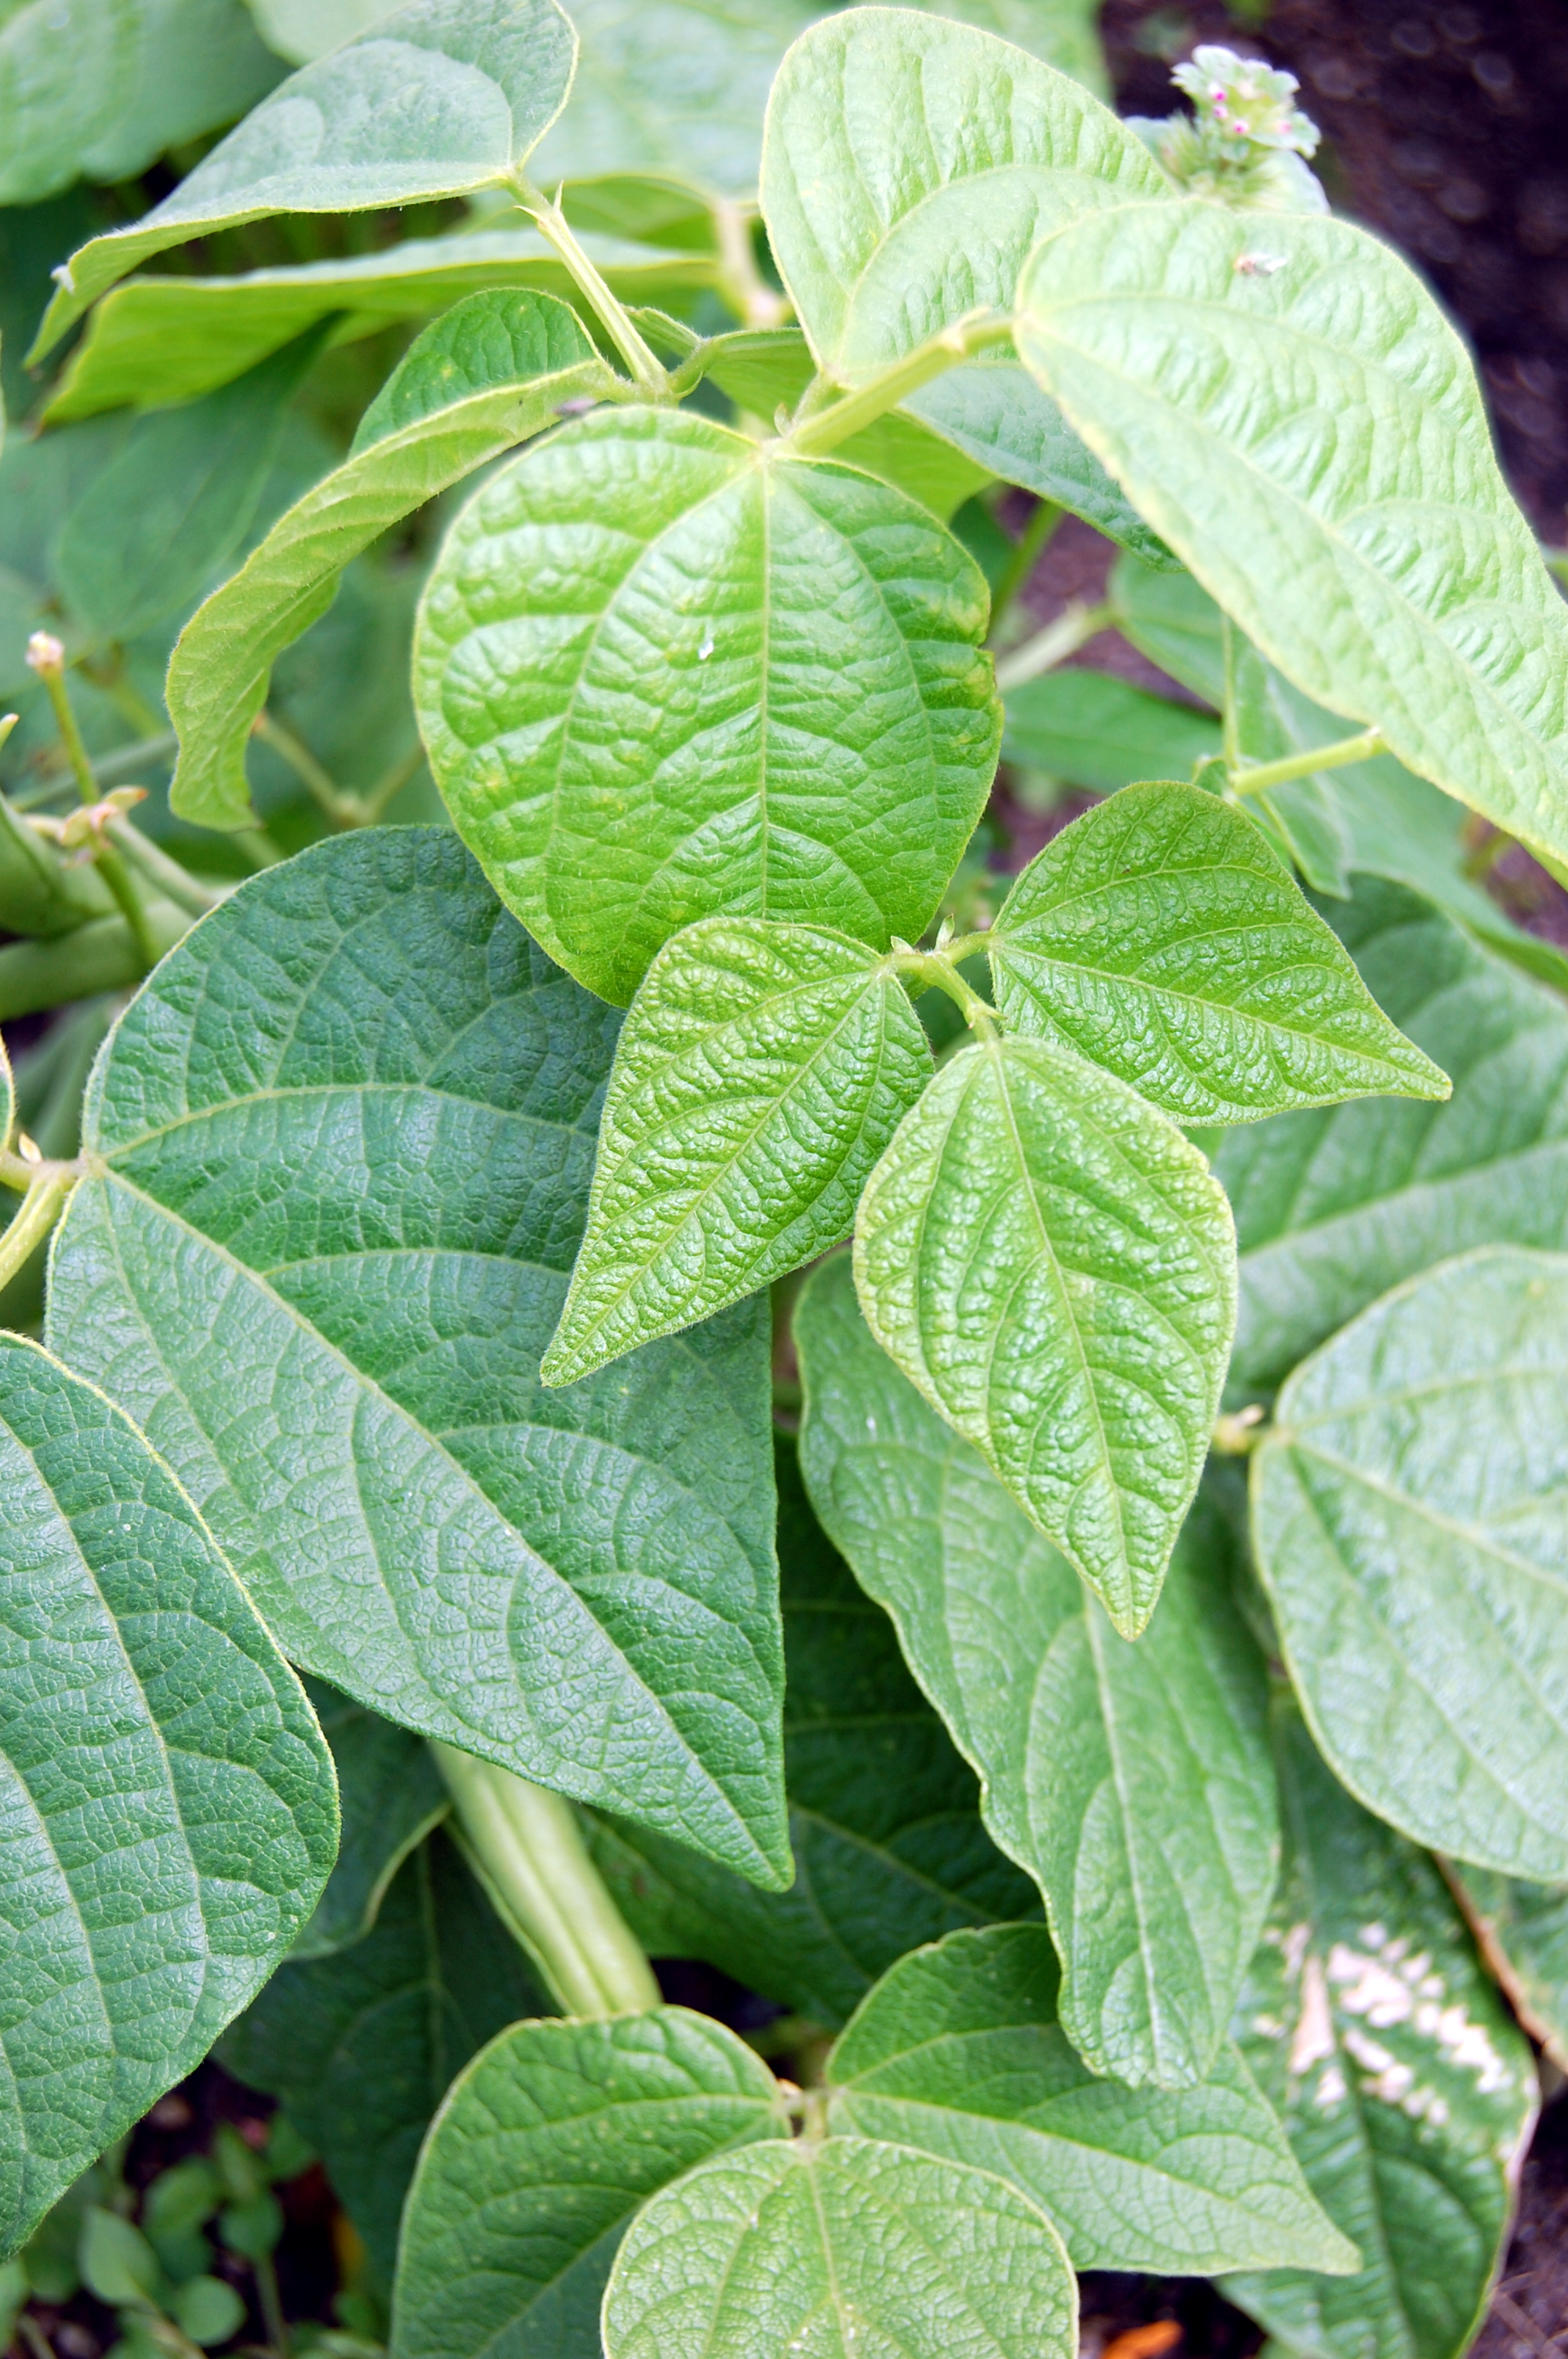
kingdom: Plantae
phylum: Tracheophyta
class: Magnoliopsida
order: Fabales
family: Fabaceae
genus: Phaseolus
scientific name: Phaseolus vulgaris
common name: Bean
